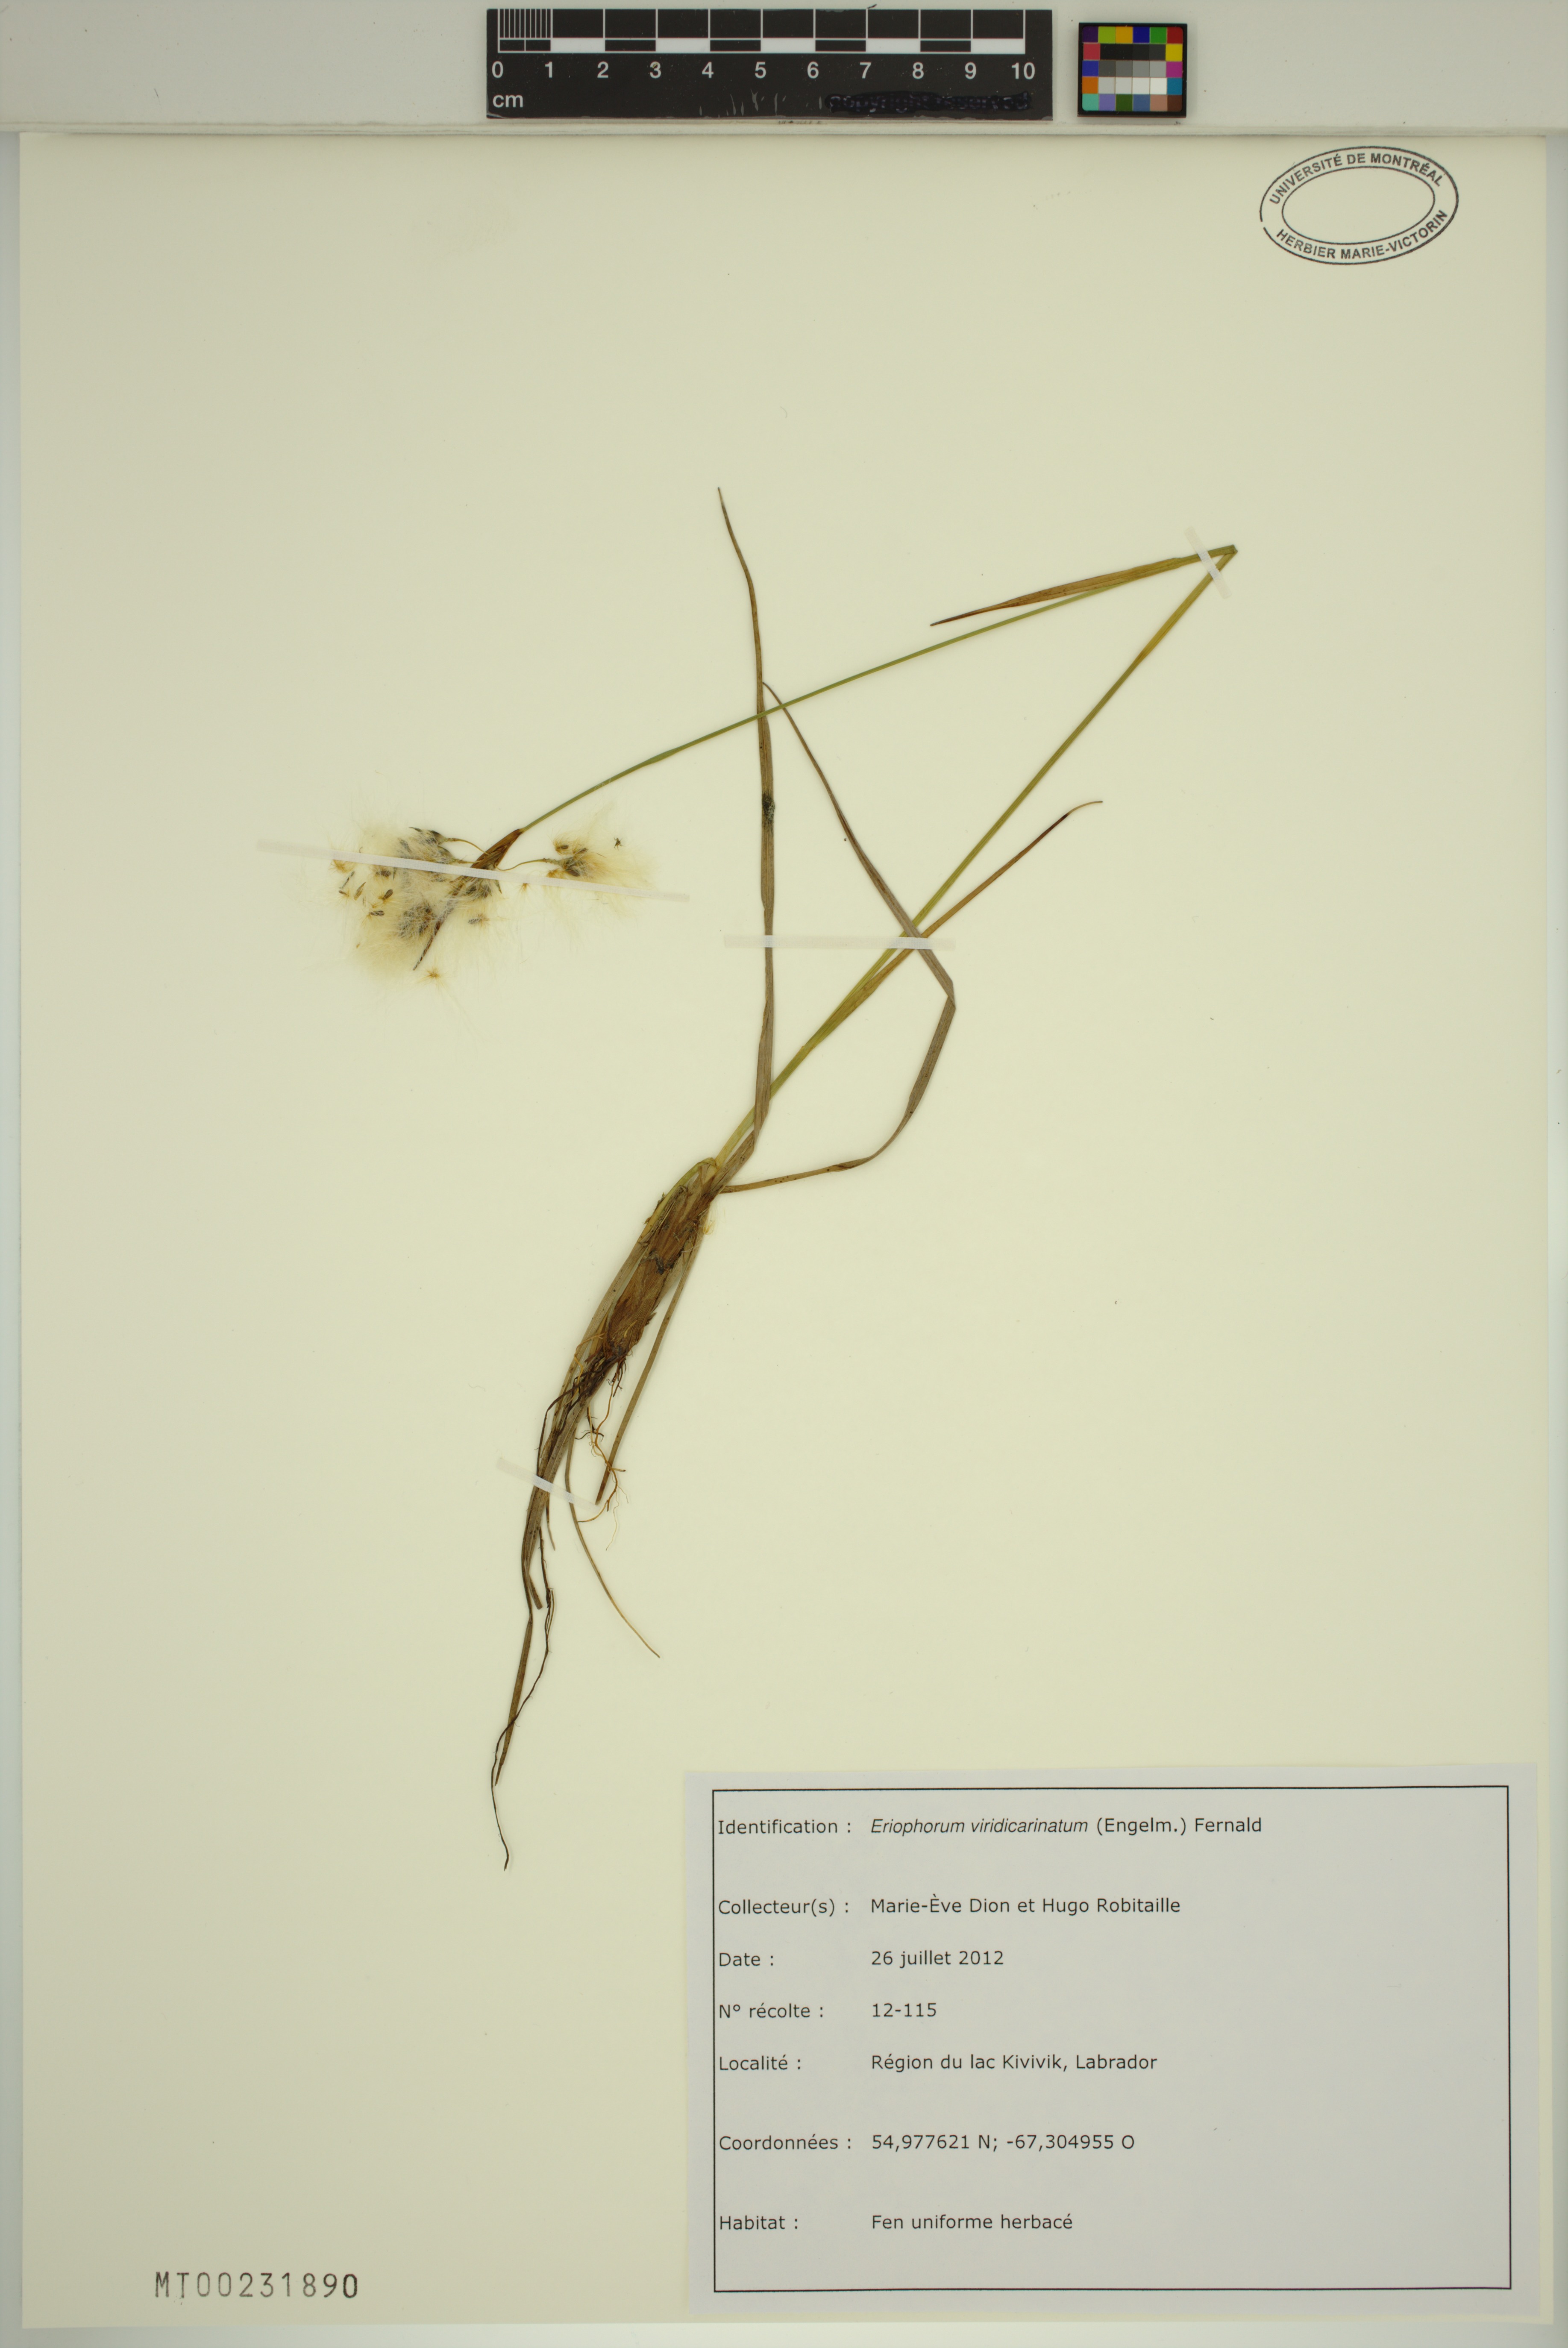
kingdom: Plantae
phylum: Tracheophyta
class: Liliopsida
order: Poales
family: Cyperaceae
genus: Eriophorum
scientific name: Eriophorum viridicarinatum
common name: Green-keeled cottongrass
